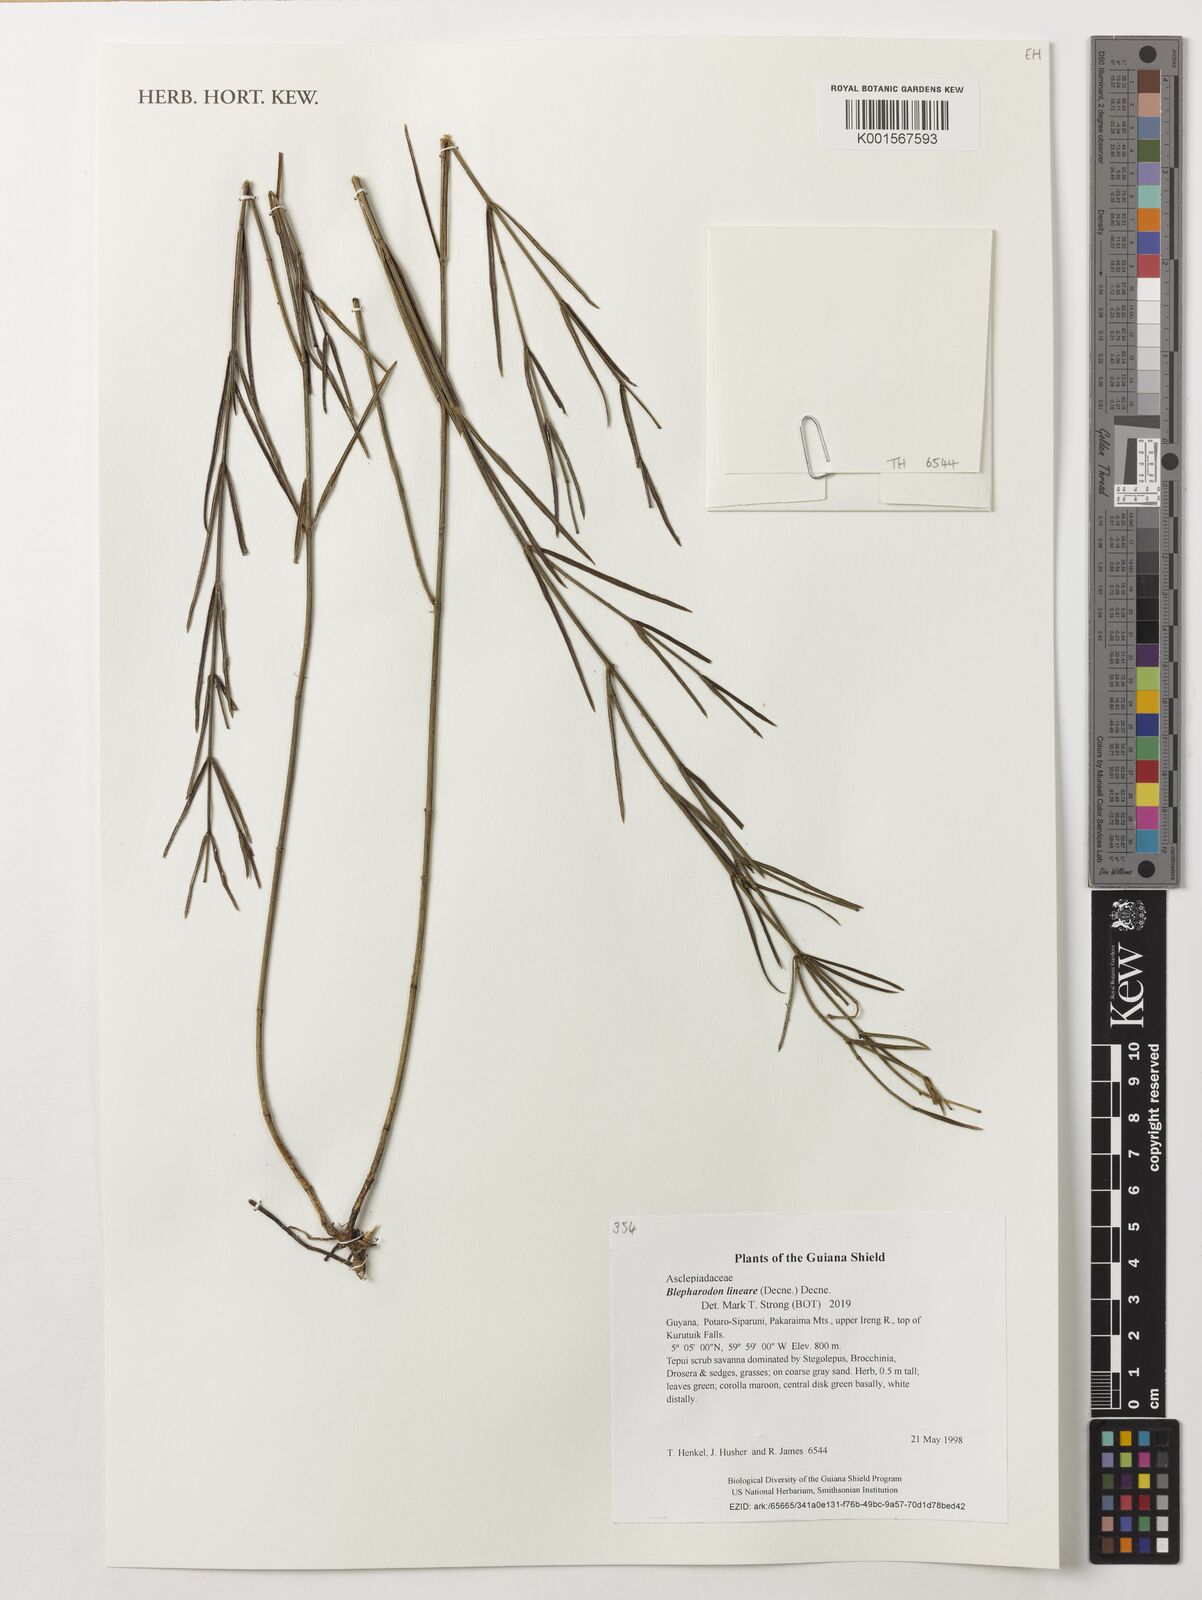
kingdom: Plantae
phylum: Tracheophyta
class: Magnoliopsida
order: Gentianales
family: Apocynaceae
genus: Blepharodon
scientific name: Blepharodon lineare
